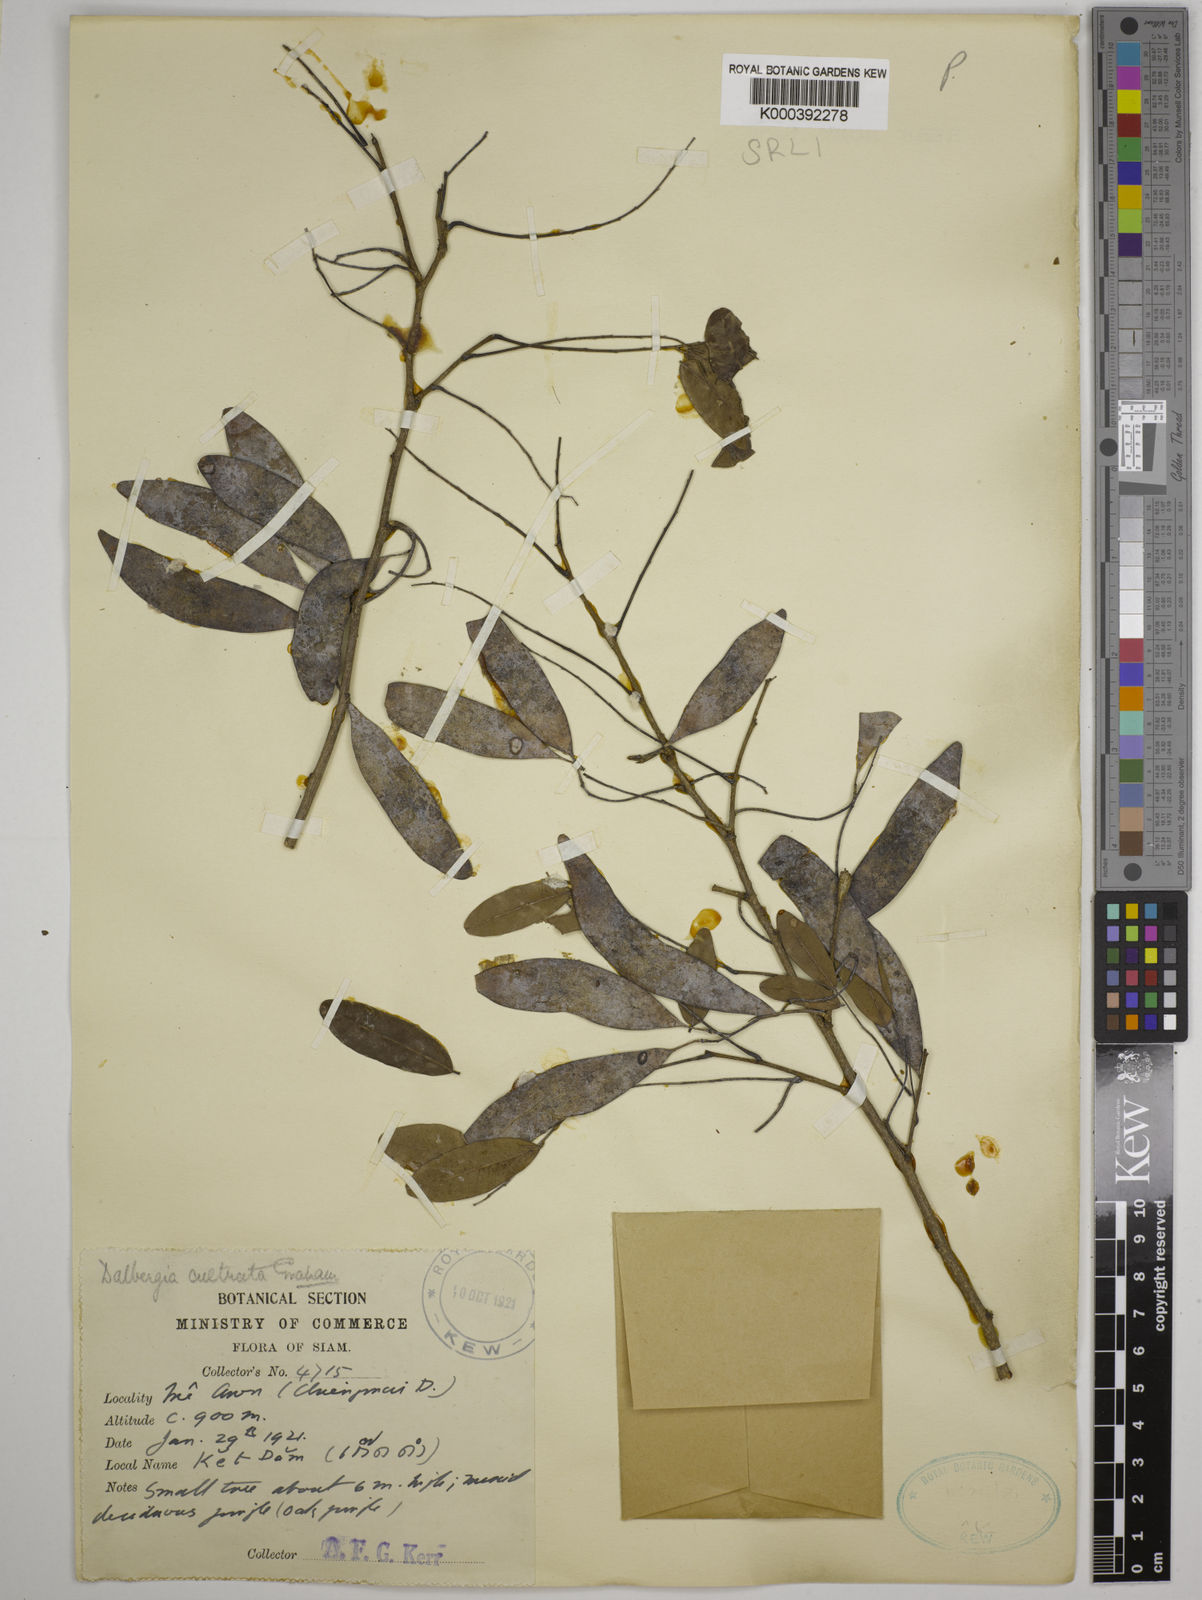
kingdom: Plantae
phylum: Tracheophyta
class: Magnoliopsida
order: Fabales
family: Fabaceae
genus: Dalbergia
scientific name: Dalbergia
